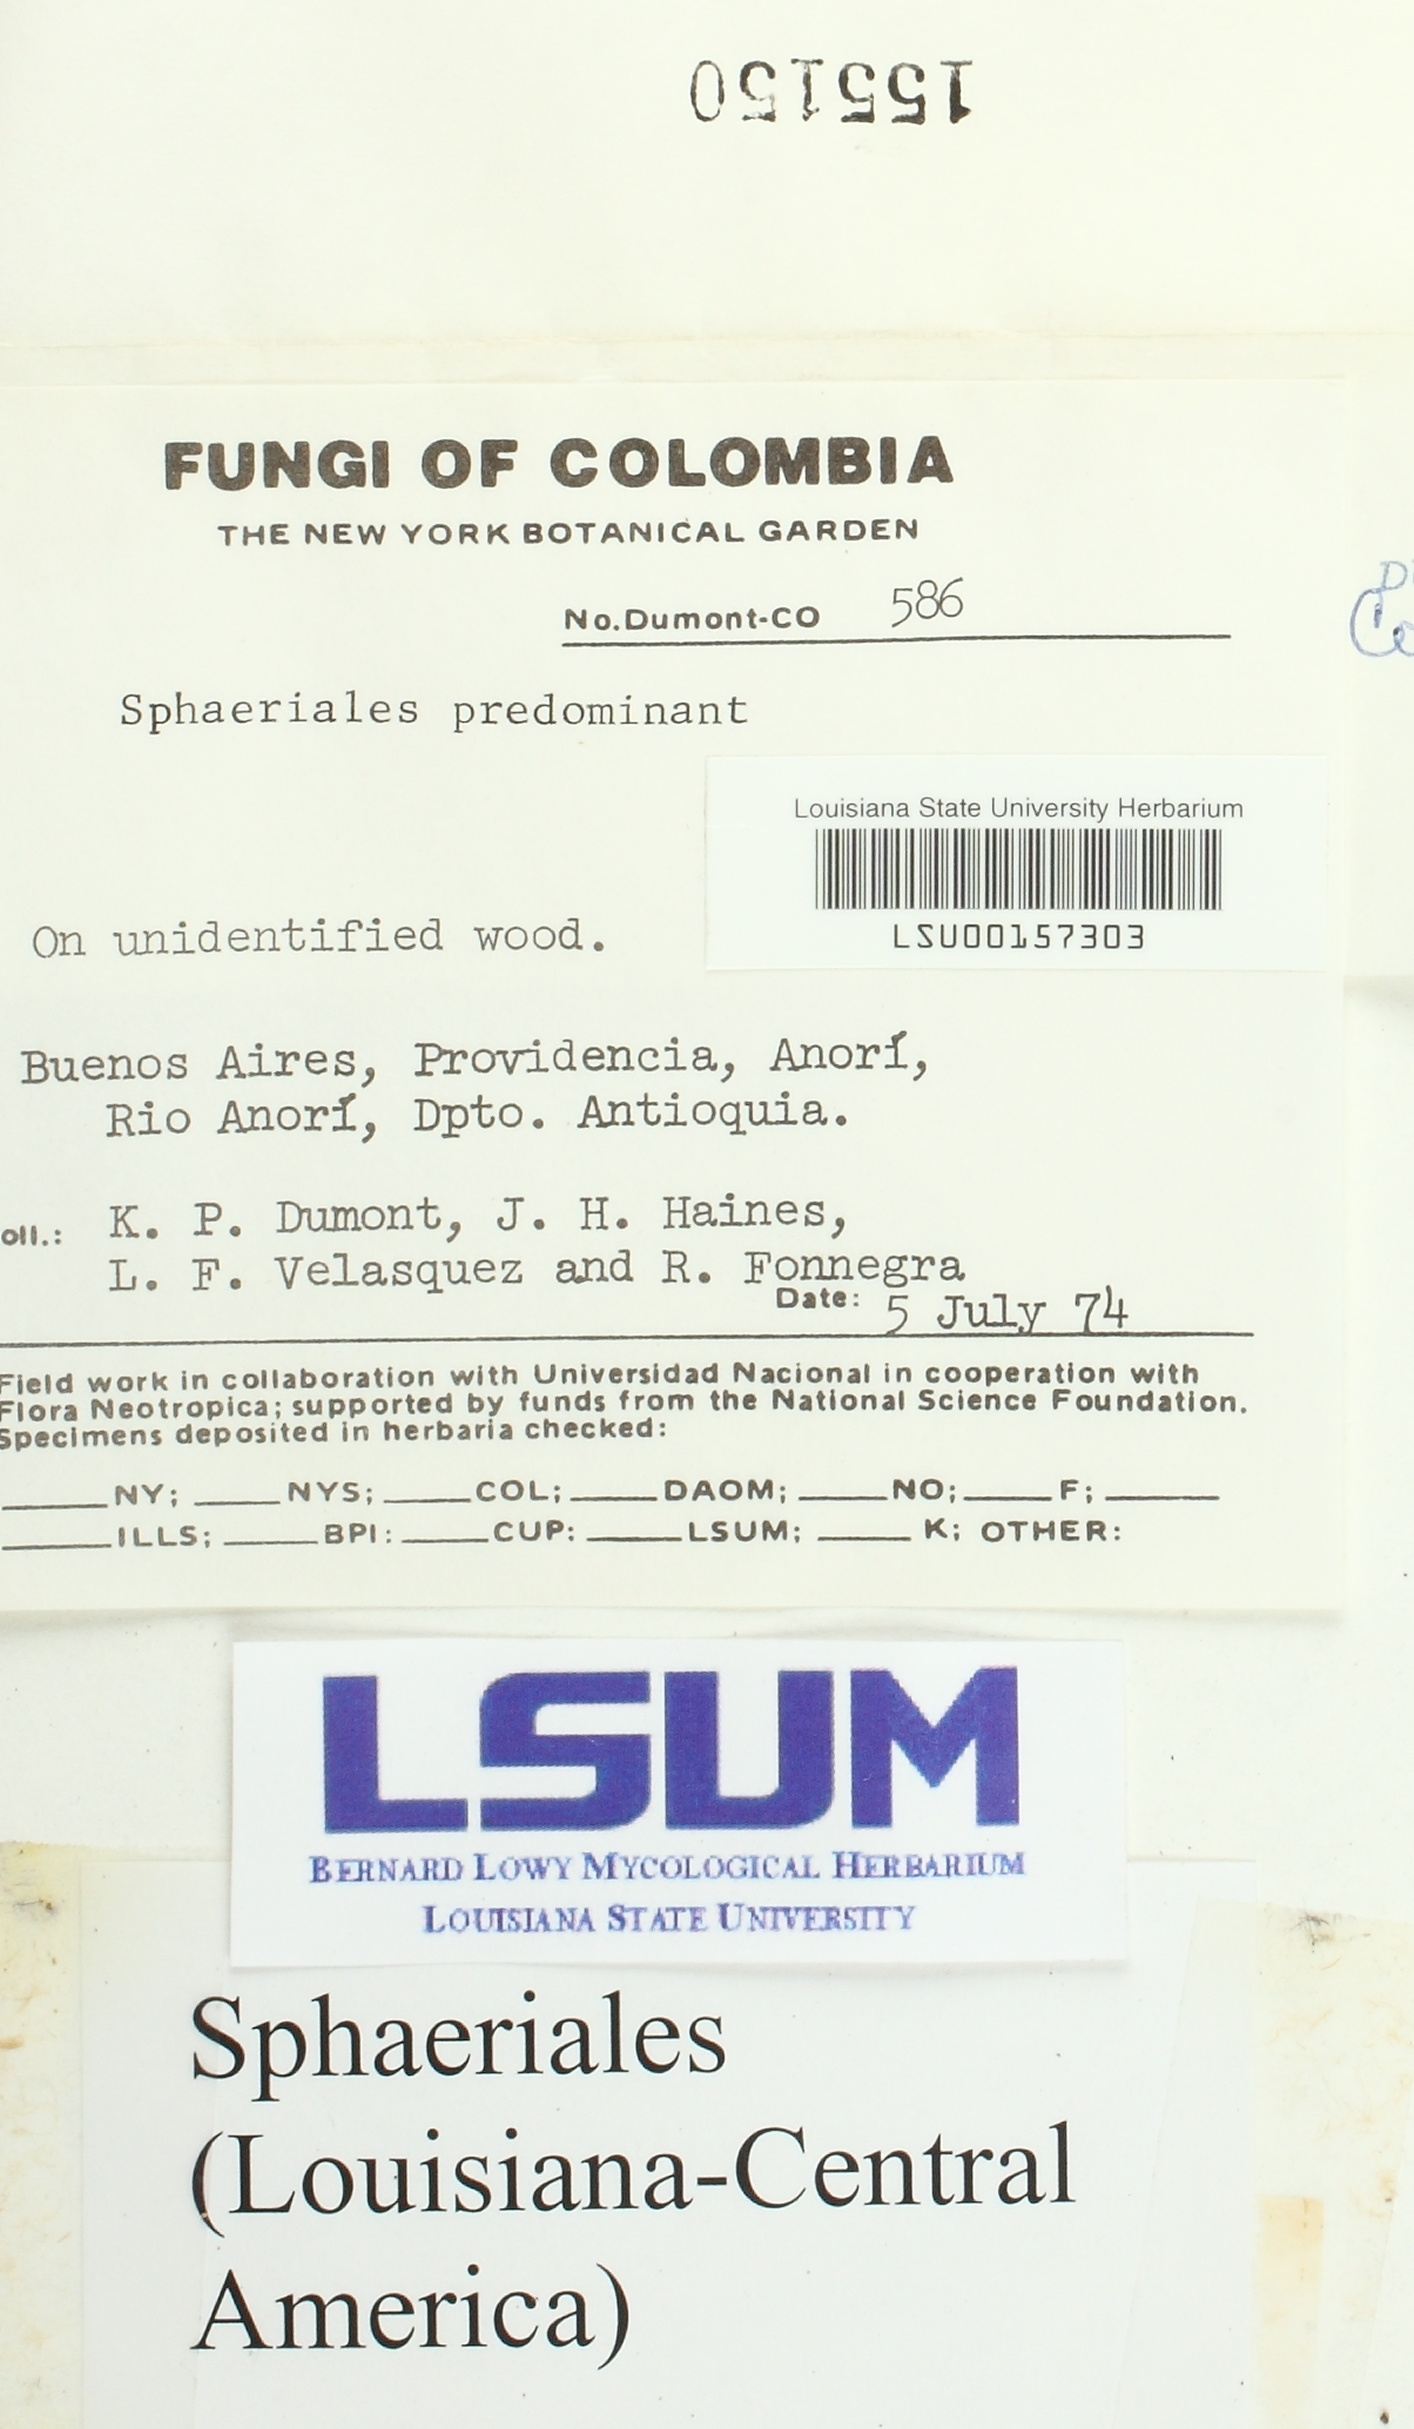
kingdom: Fungi
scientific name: Fungi
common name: Fungi
